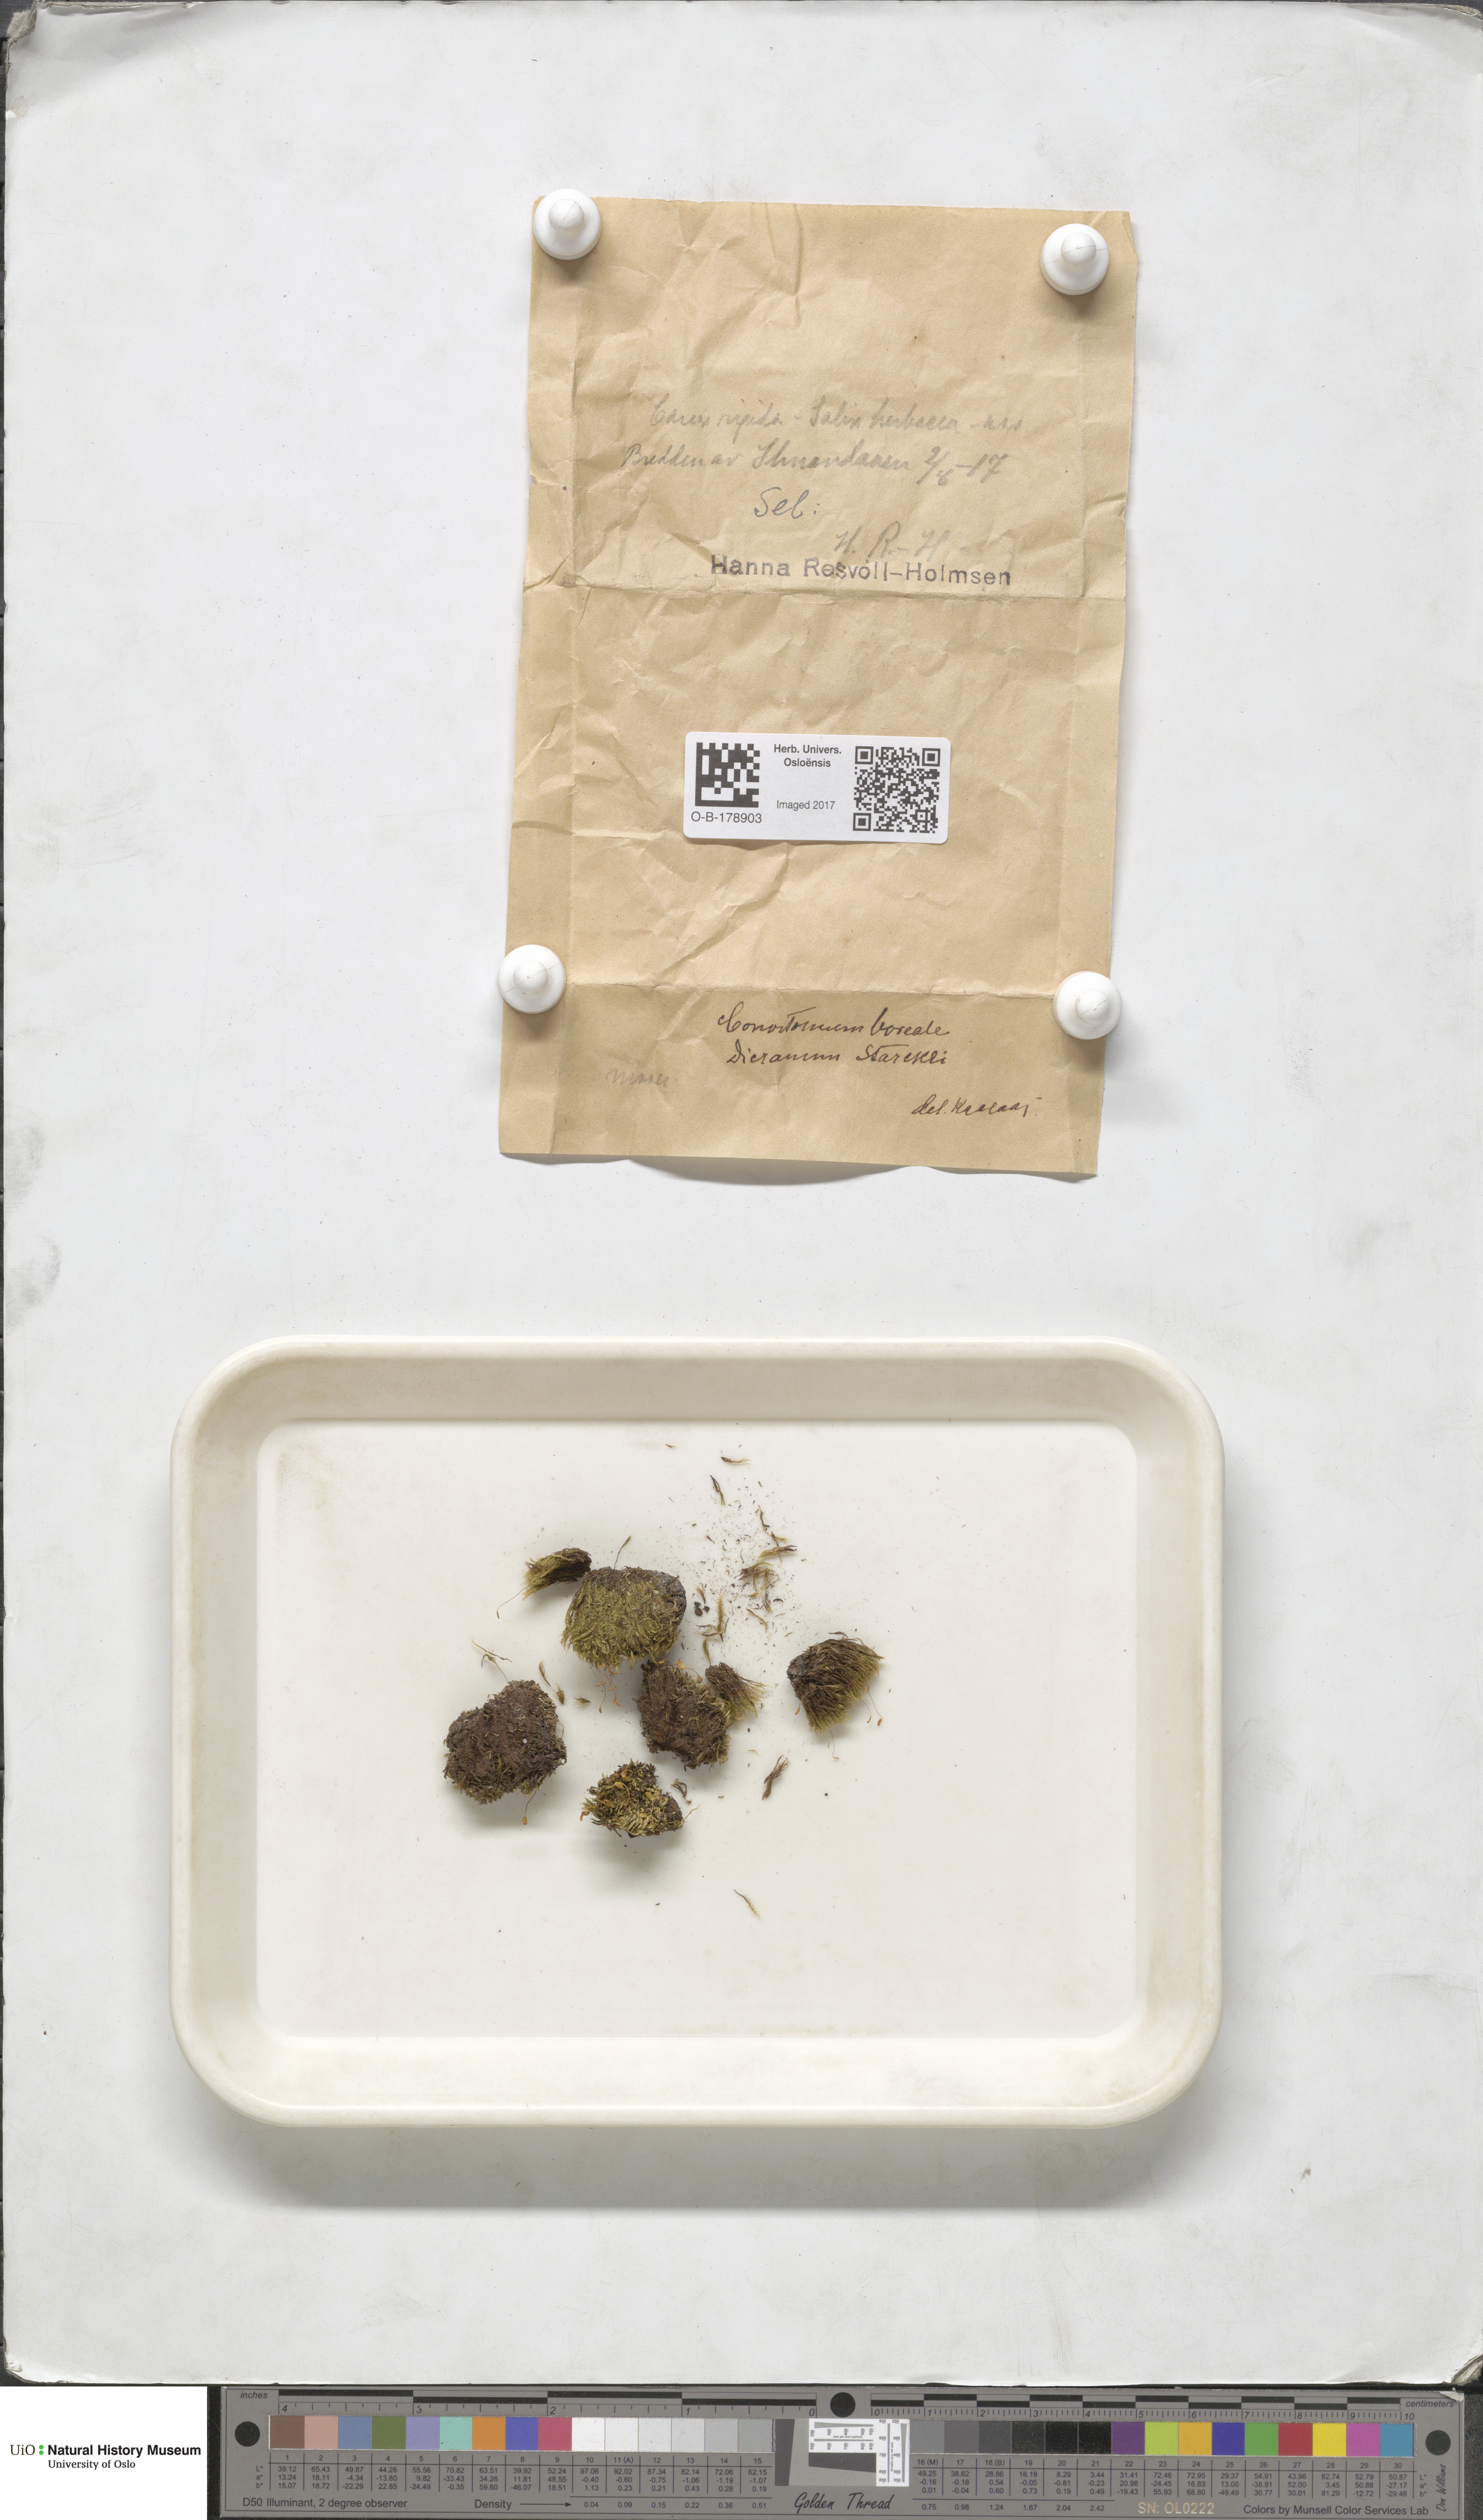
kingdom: Plantae
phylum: Bryophyta
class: Bryopsida
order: Bartramiales
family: Bartramiaceae
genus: Conostomum
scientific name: Conostomum tetragonum
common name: Helmet moss
